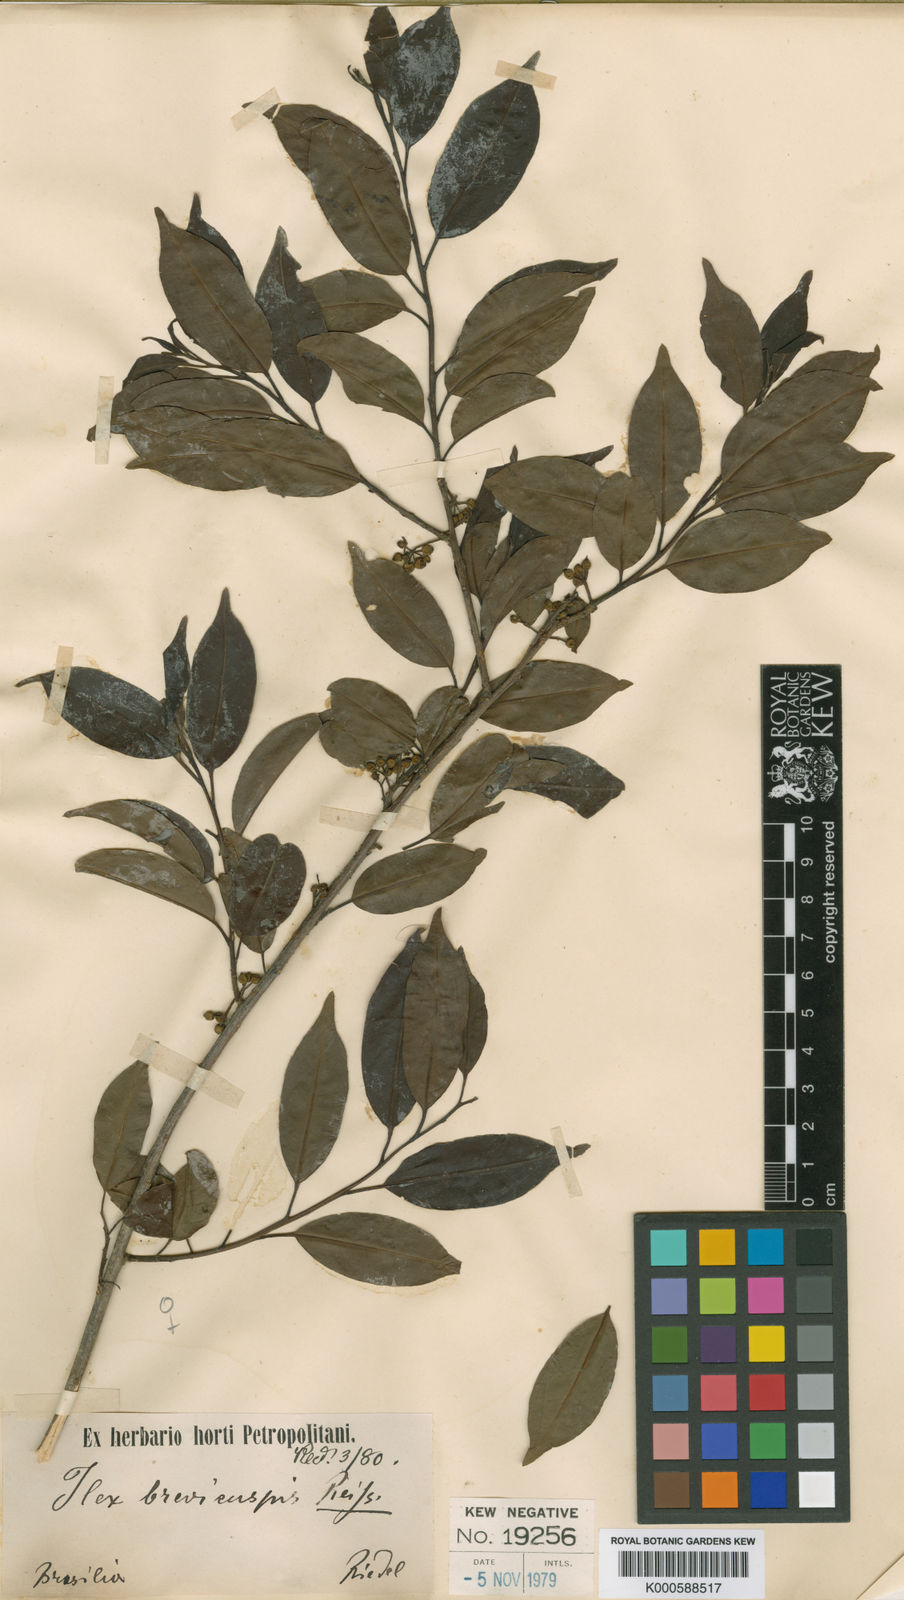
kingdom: Plantae
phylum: Tracheophyta
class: Magnoliopsida
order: Aquifoliales
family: Aquifoliaceae
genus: Ilex
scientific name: Ilex brevicuspis
